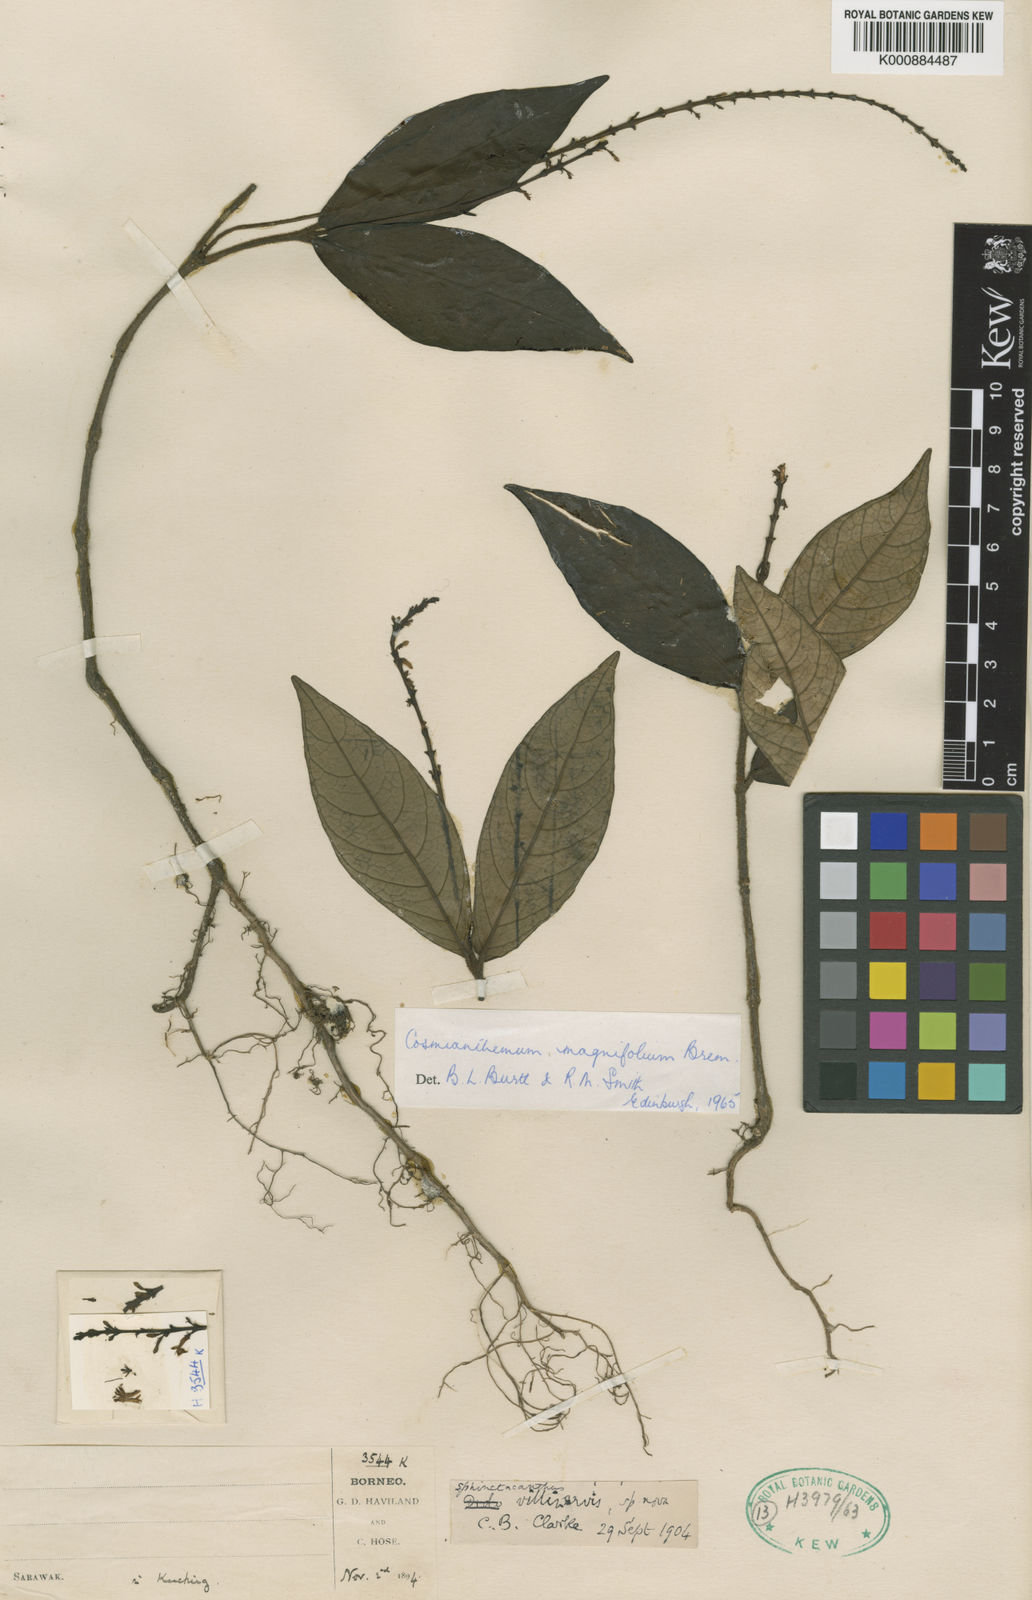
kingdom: Plantae
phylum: Tracheophyta
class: Magnoliopsida
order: Lamiales
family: Acanthaceae
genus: Cosmianthemum
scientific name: Cosmianthemum magnifolium
